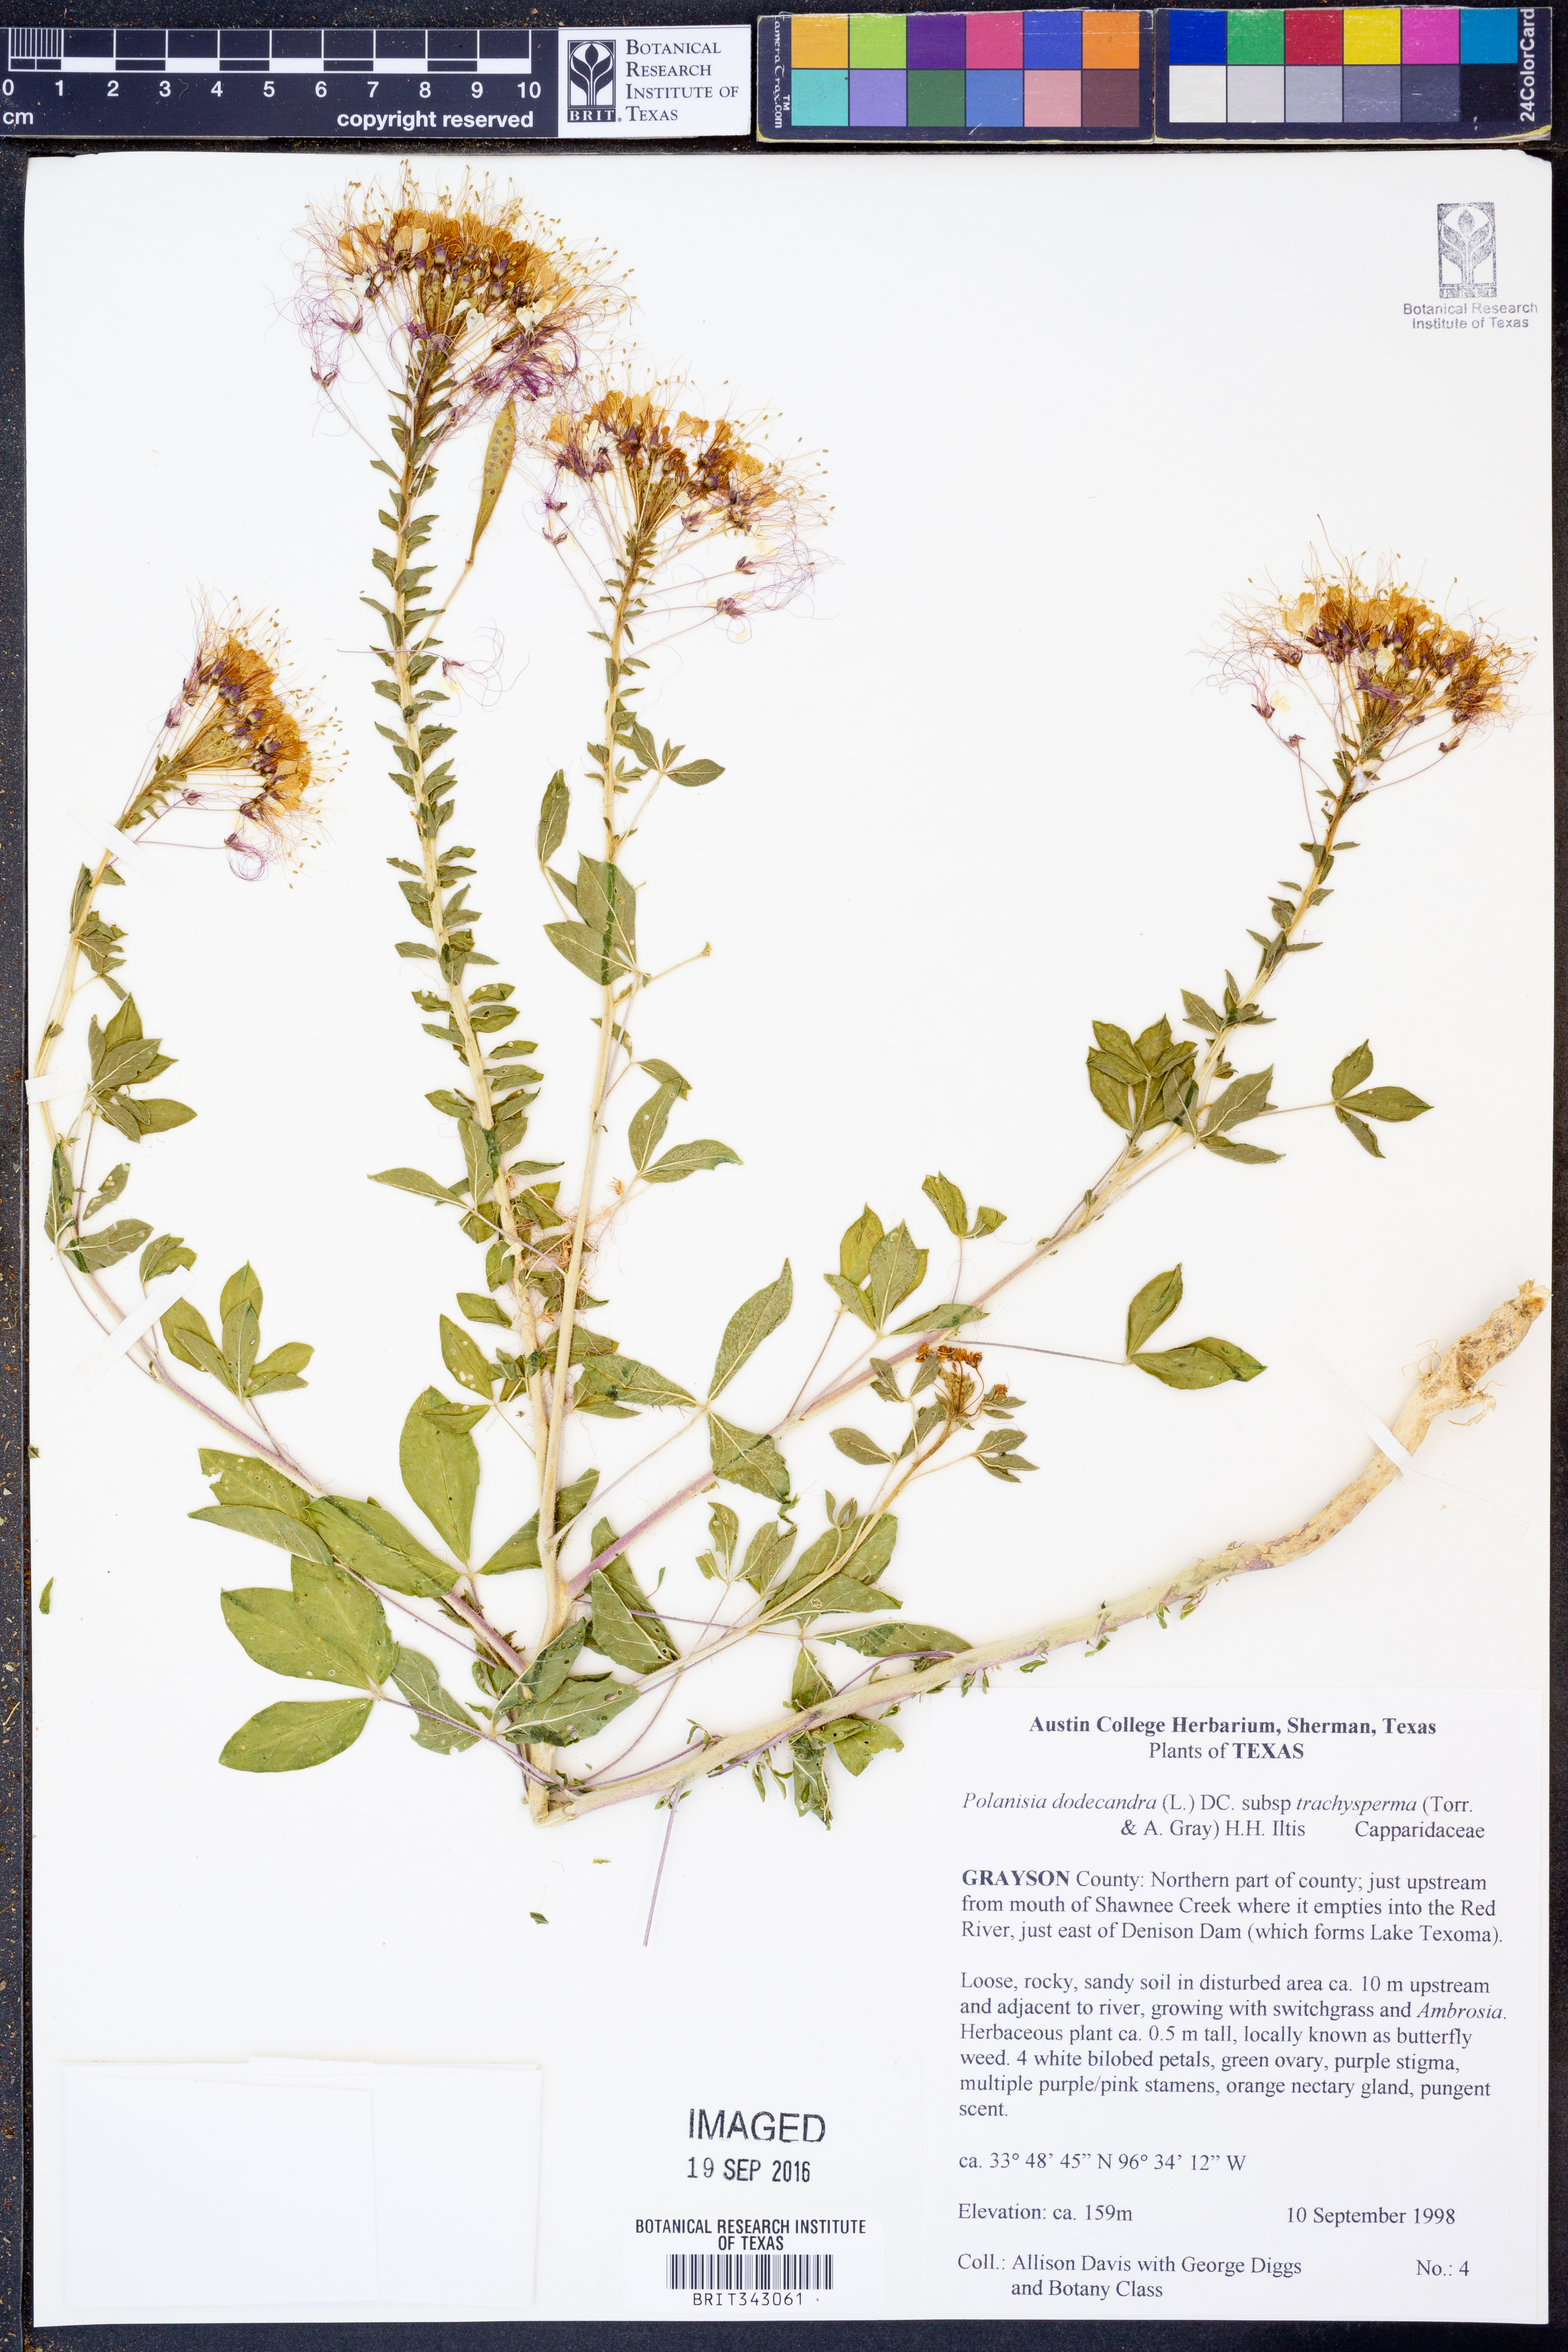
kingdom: Plantae
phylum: Tracheophyta
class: Magnoliopsida
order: Brassicales
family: Cleomaceae
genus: Polanisia
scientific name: Polanisia trachysperma
